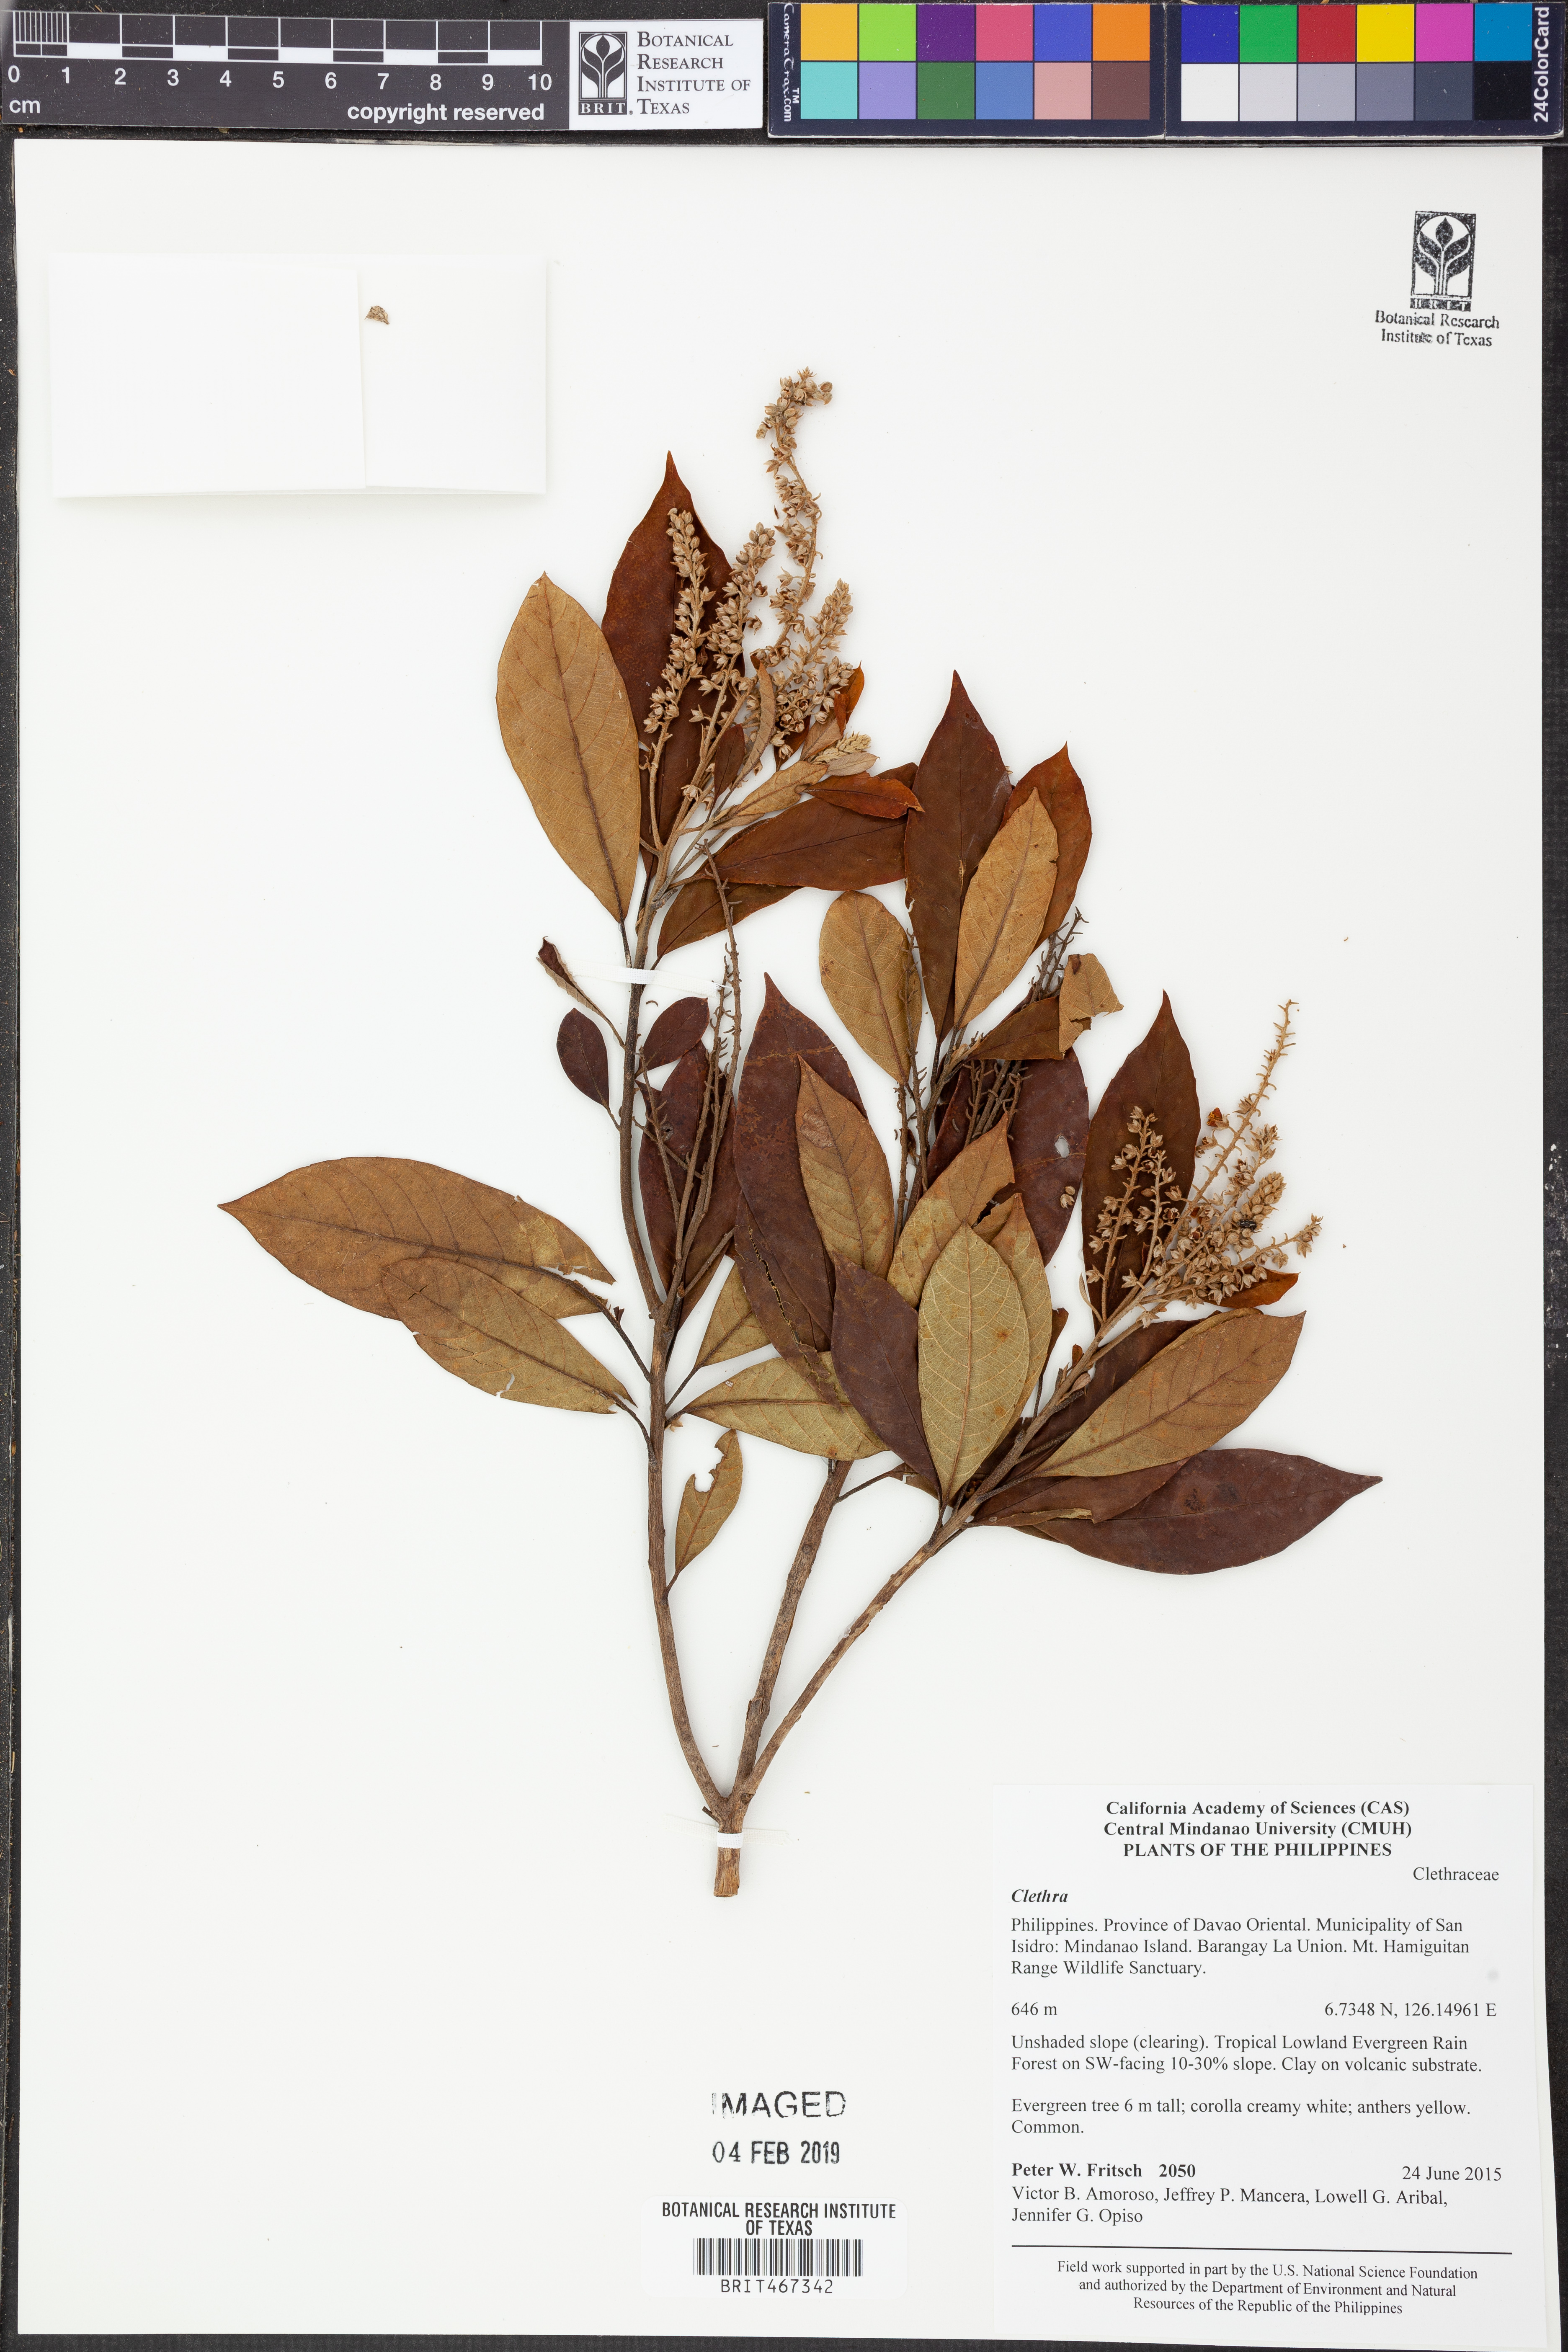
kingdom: Plantae
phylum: Tracheophyta
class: Magnoliopsida
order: Ericales
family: Clethraceae
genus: Clethra
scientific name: Clethra
